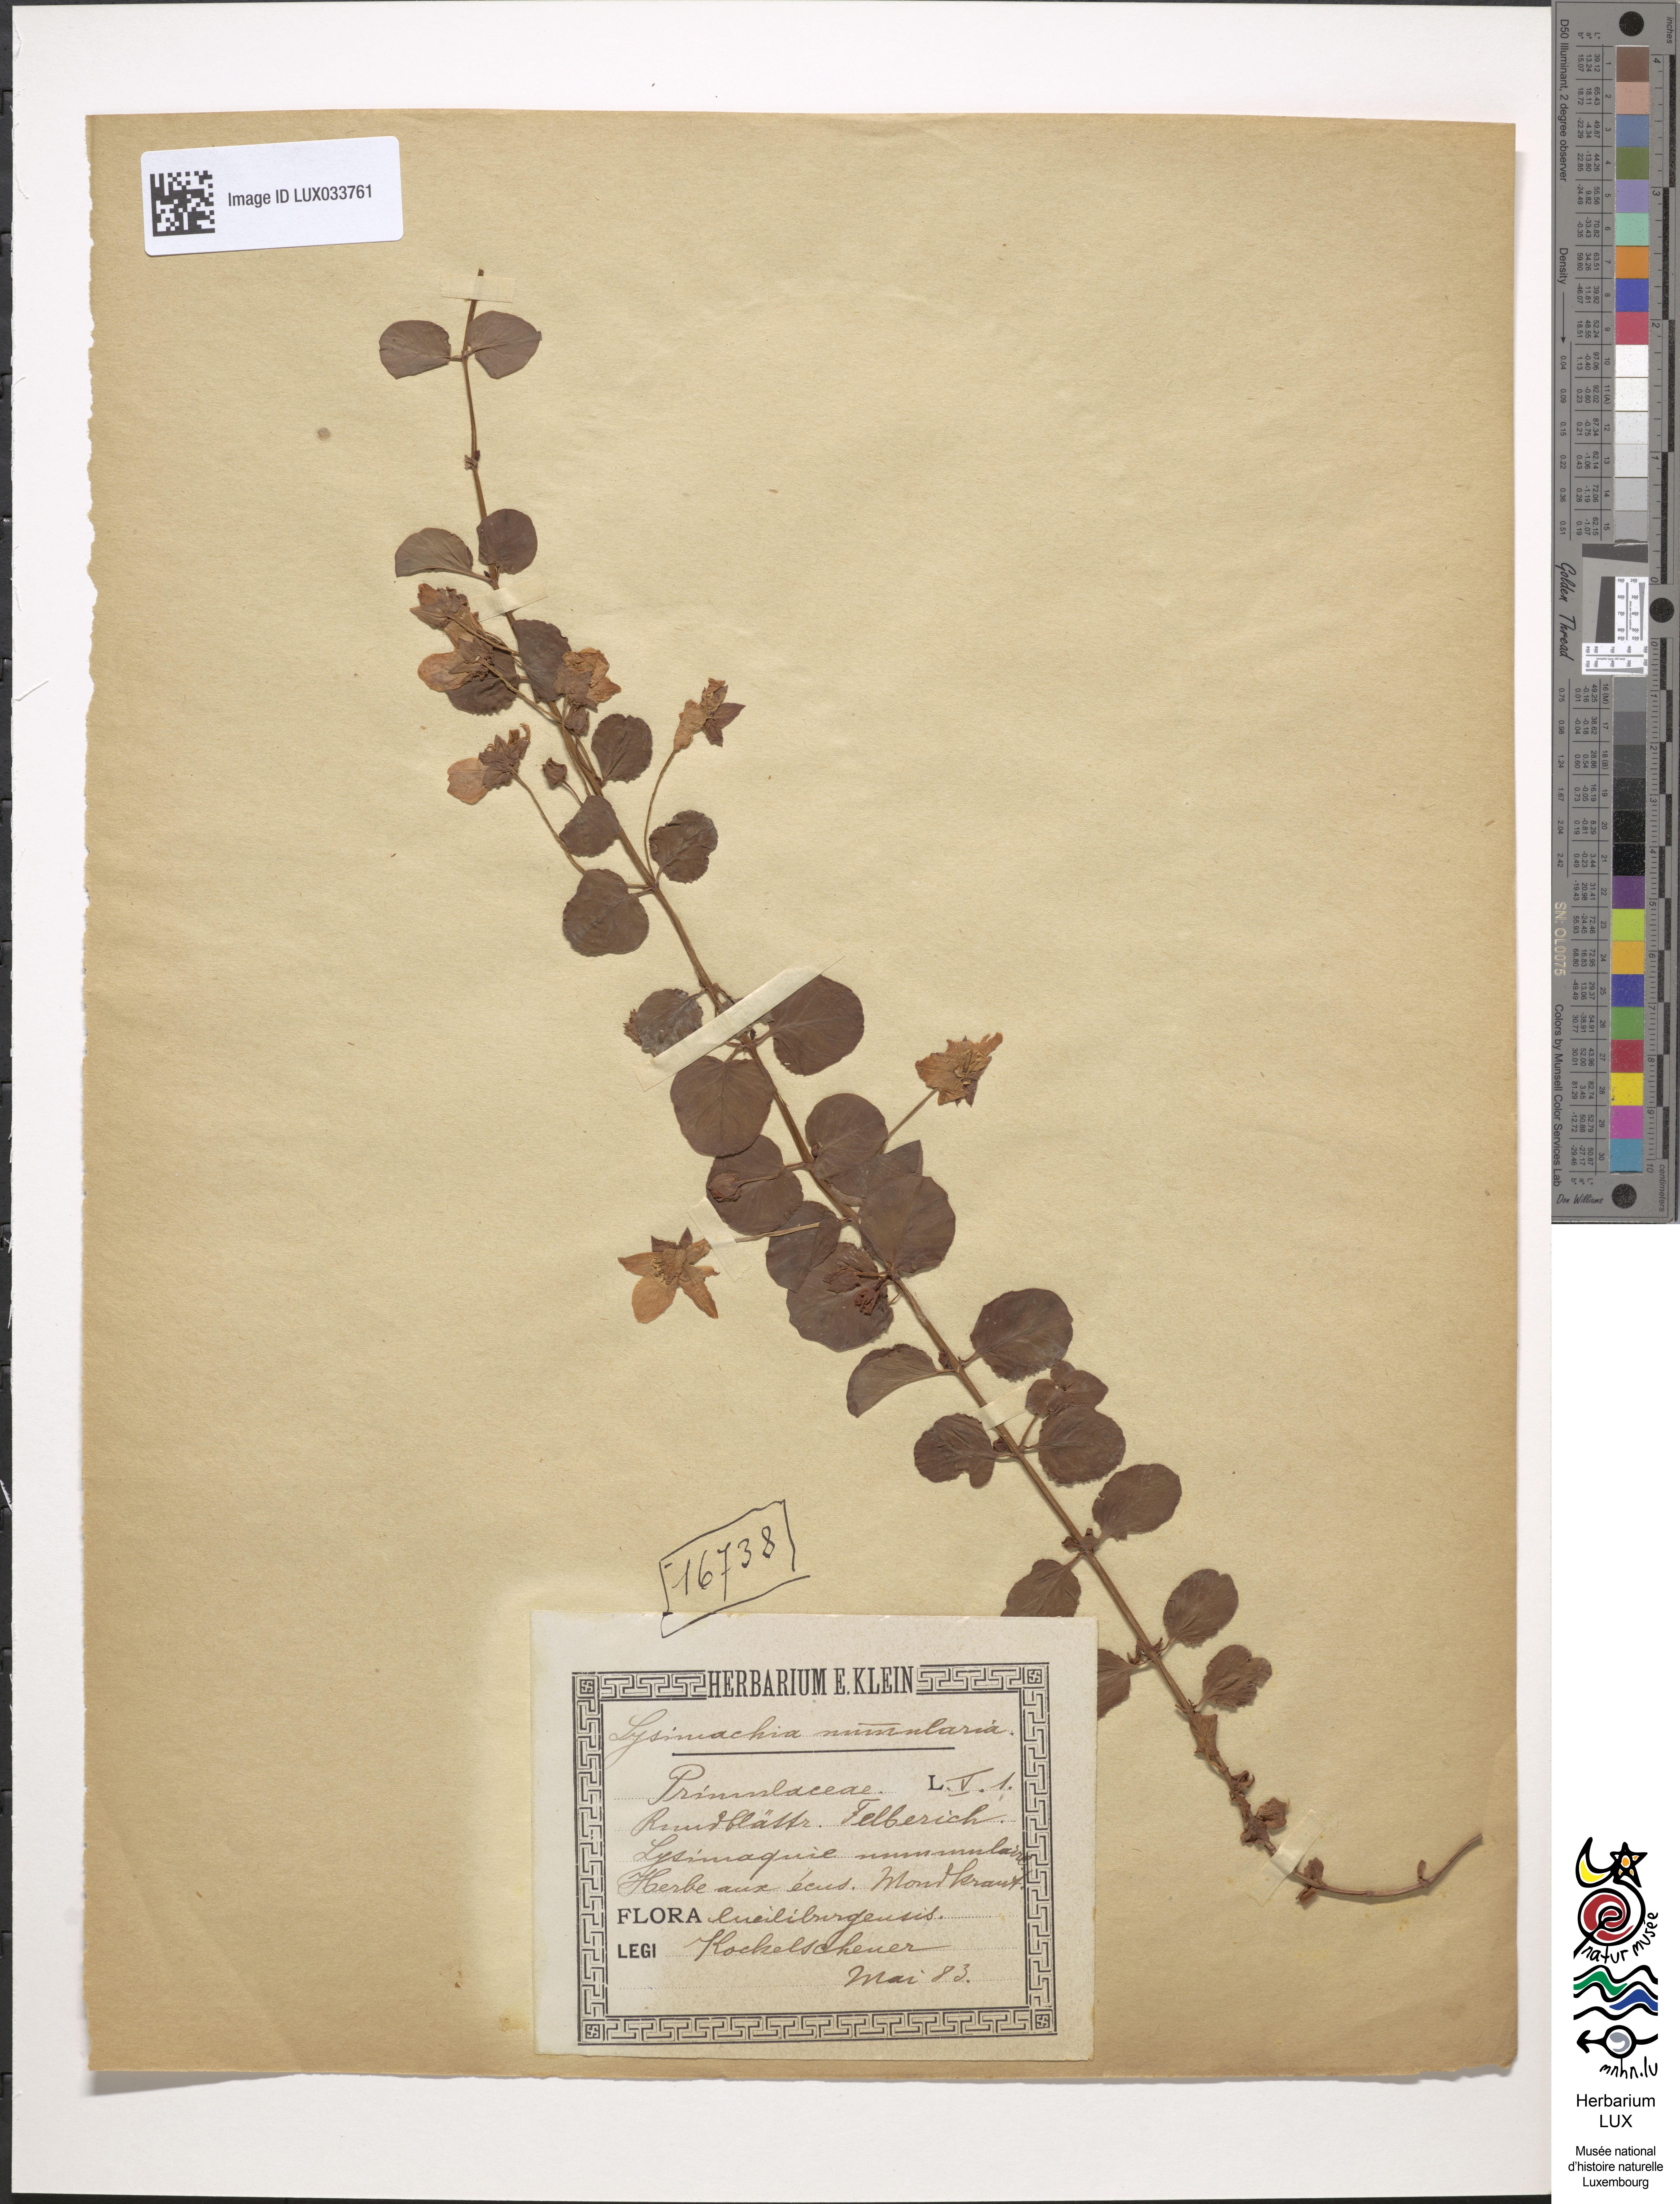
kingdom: Plantae
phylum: Tracheophyta
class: Magnoliopsida
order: Ericales
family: Primulaceae
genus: Lysimachia
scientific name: Lysimachia nummularia
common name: Moneywort
